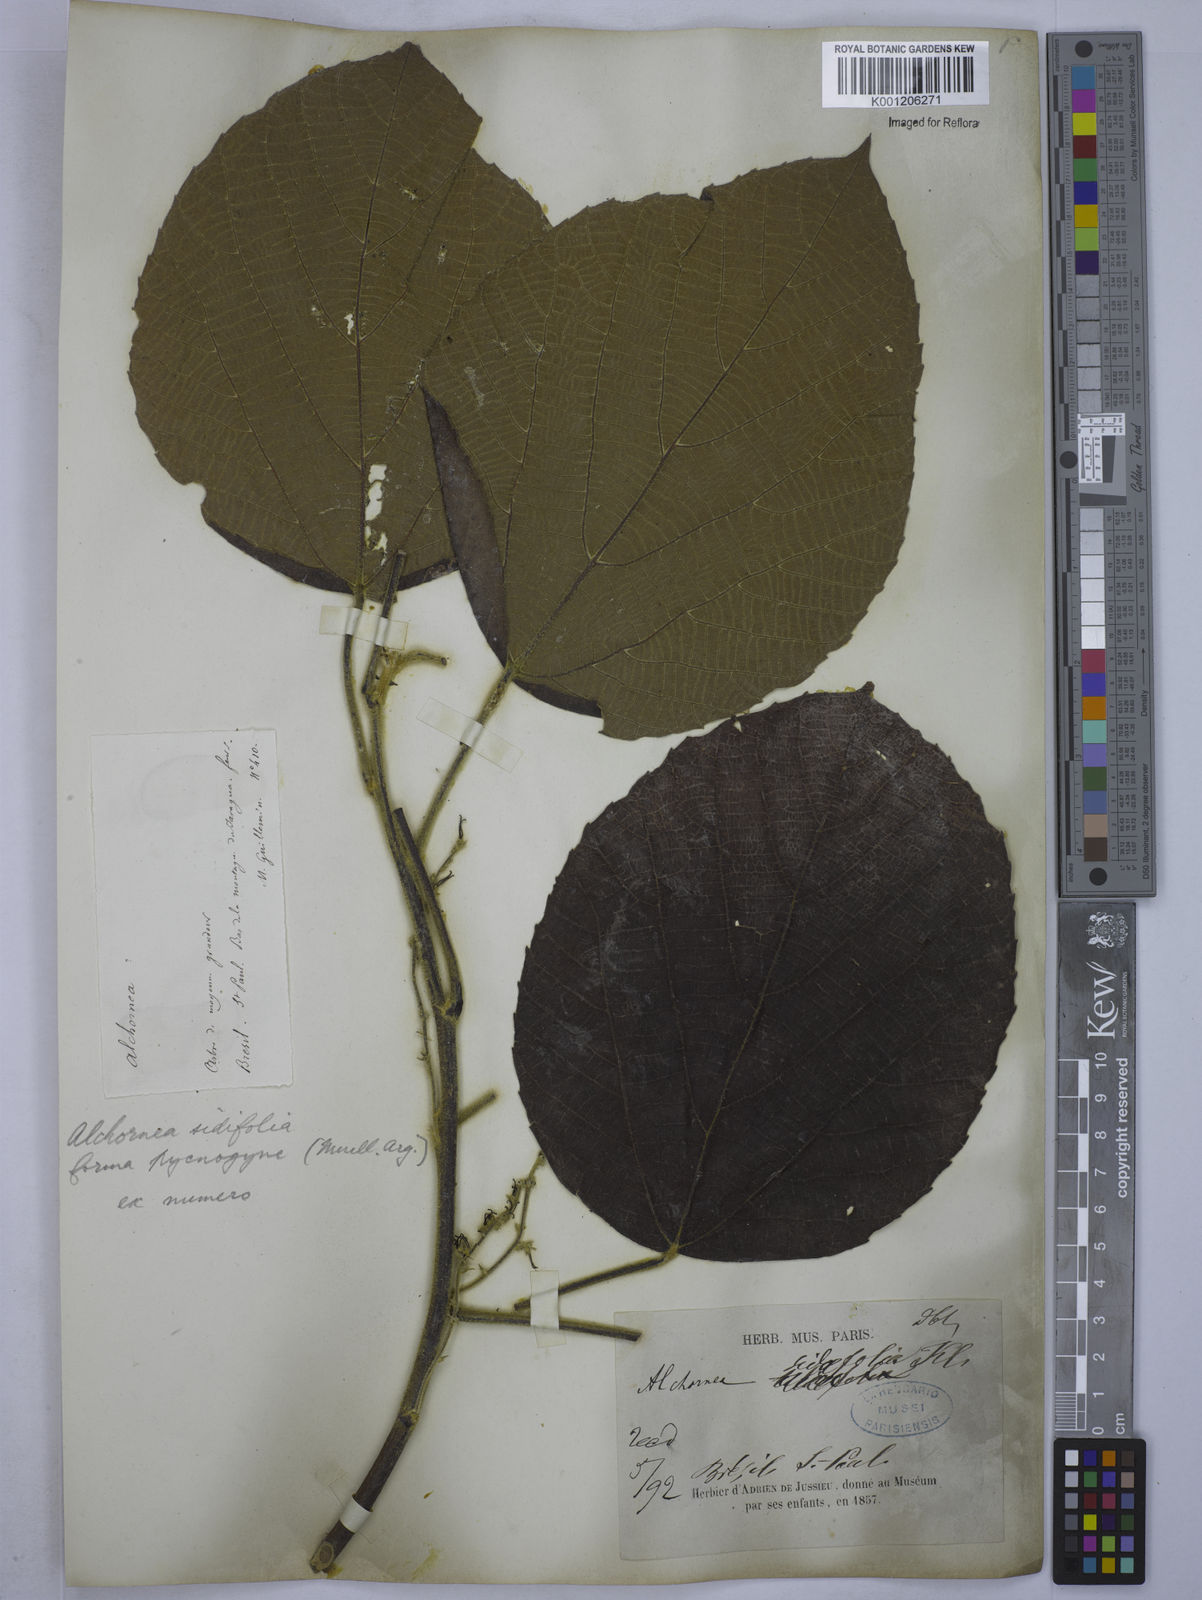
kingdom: Plantae
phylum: Tracheophyta
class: Magnoliopsida
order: Malpighiales
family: Euphorbiaceae
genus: Alchornea
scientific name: Alchornea
